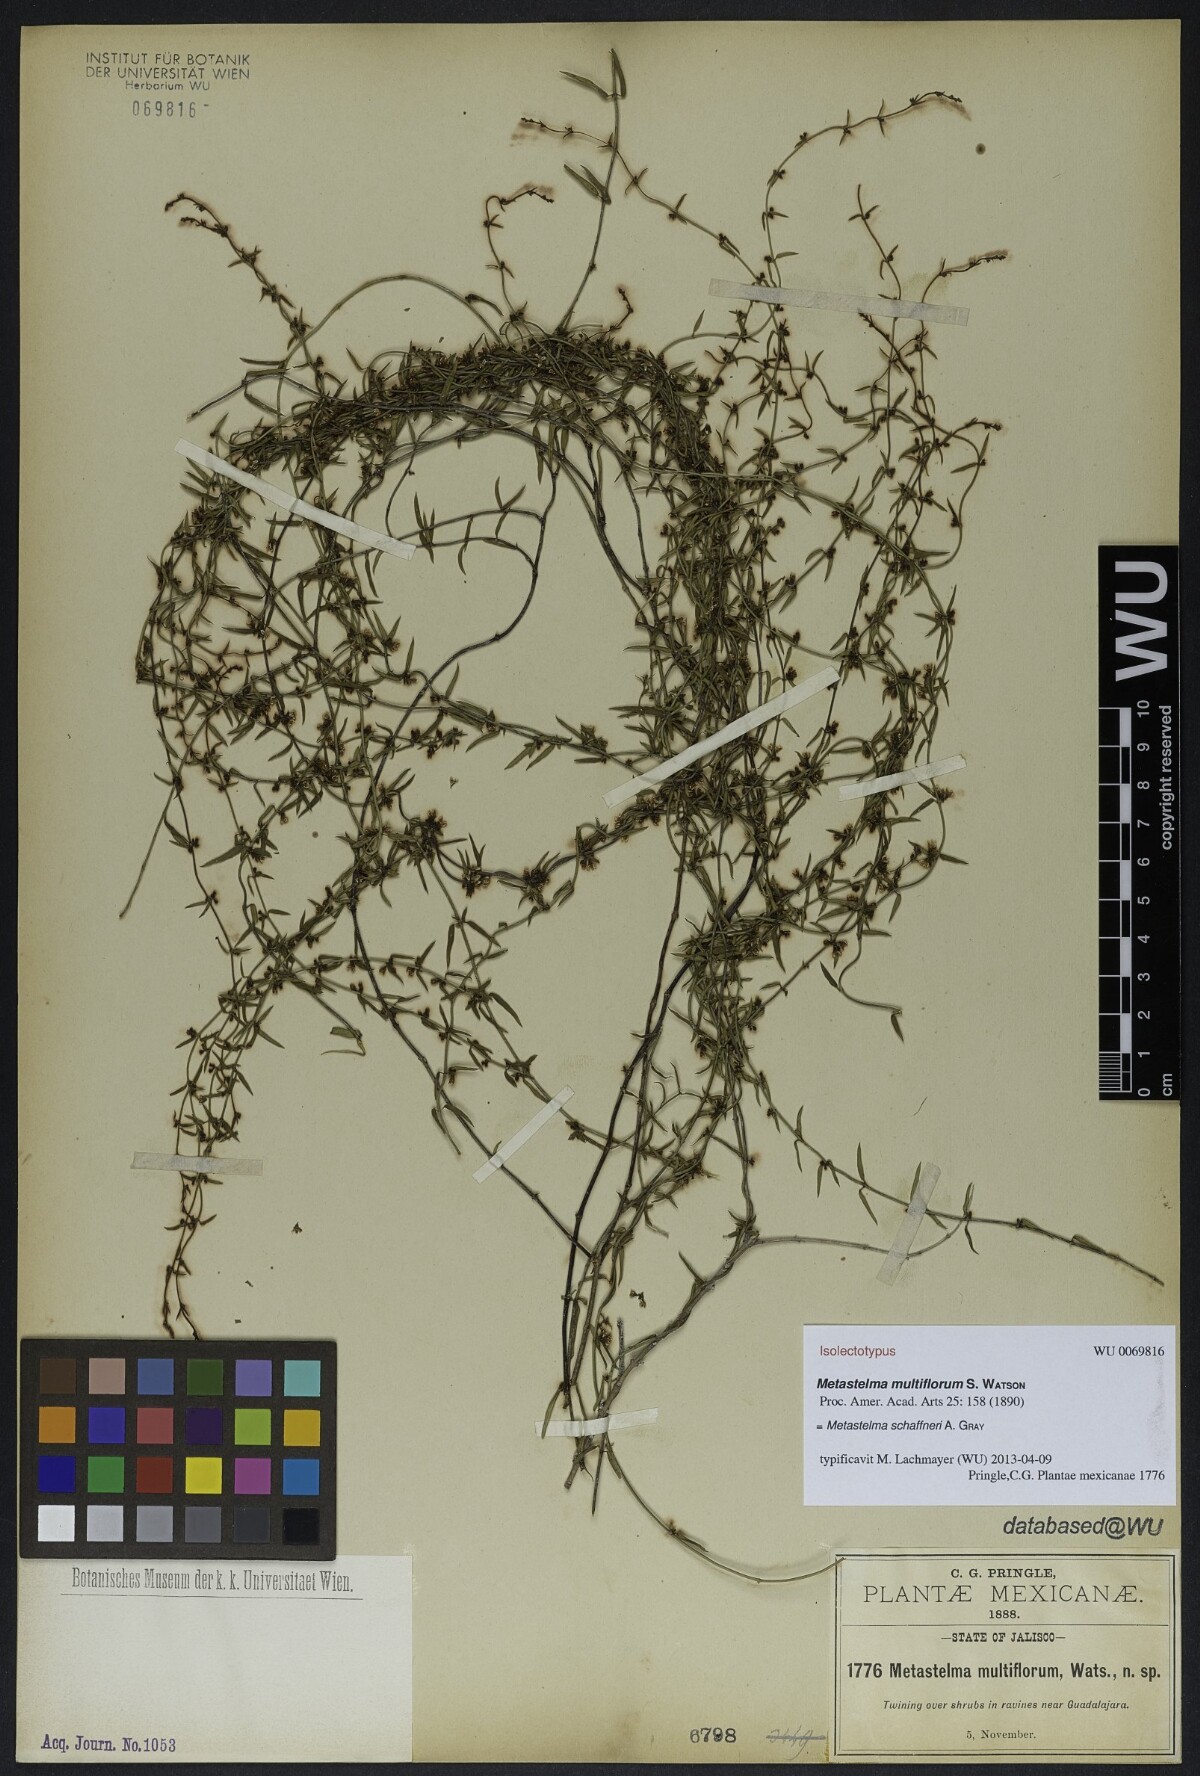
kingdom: Plantae
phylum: Tracheophyta
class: Magnoliopsida
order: Gentianales
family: Apocynaceae
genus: Metastelma
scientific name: Metastelma schaffneri
